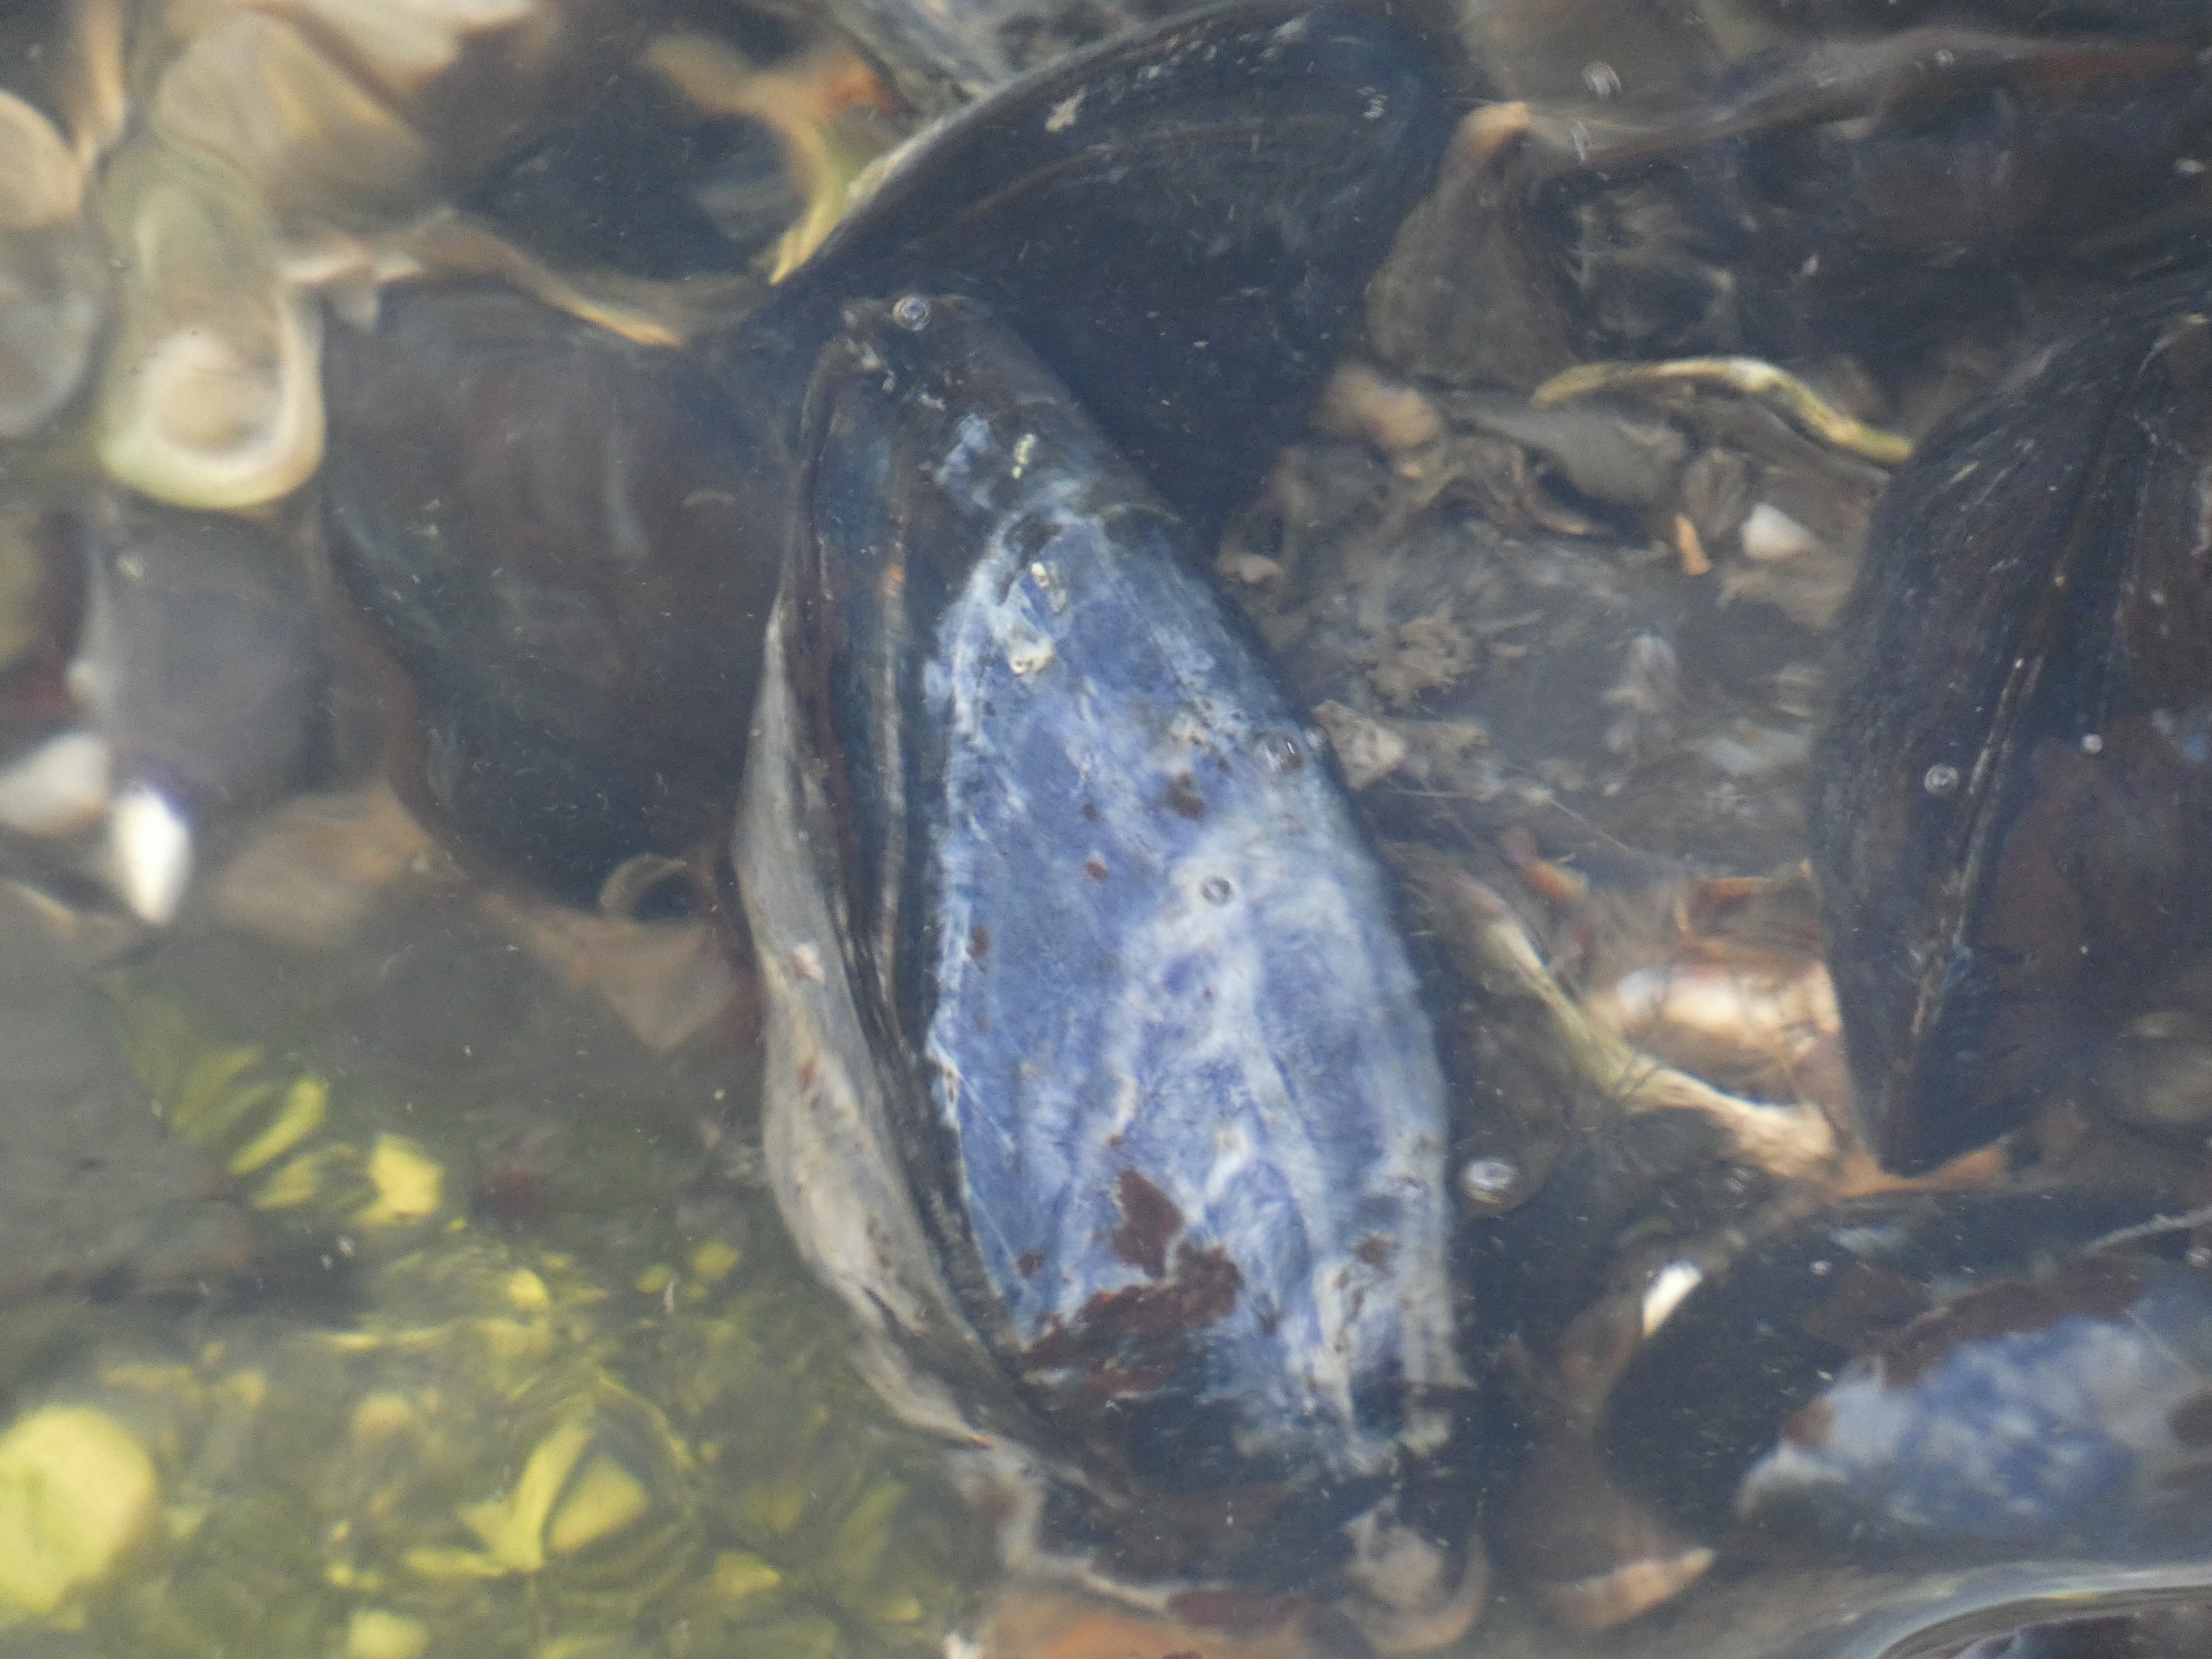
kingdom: Animalia
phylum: Mollusca
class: Bivalvia
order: Mytilida
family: Mytilidae
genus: Mytilus
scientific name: Mytilus edulis
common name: Blåmusling
